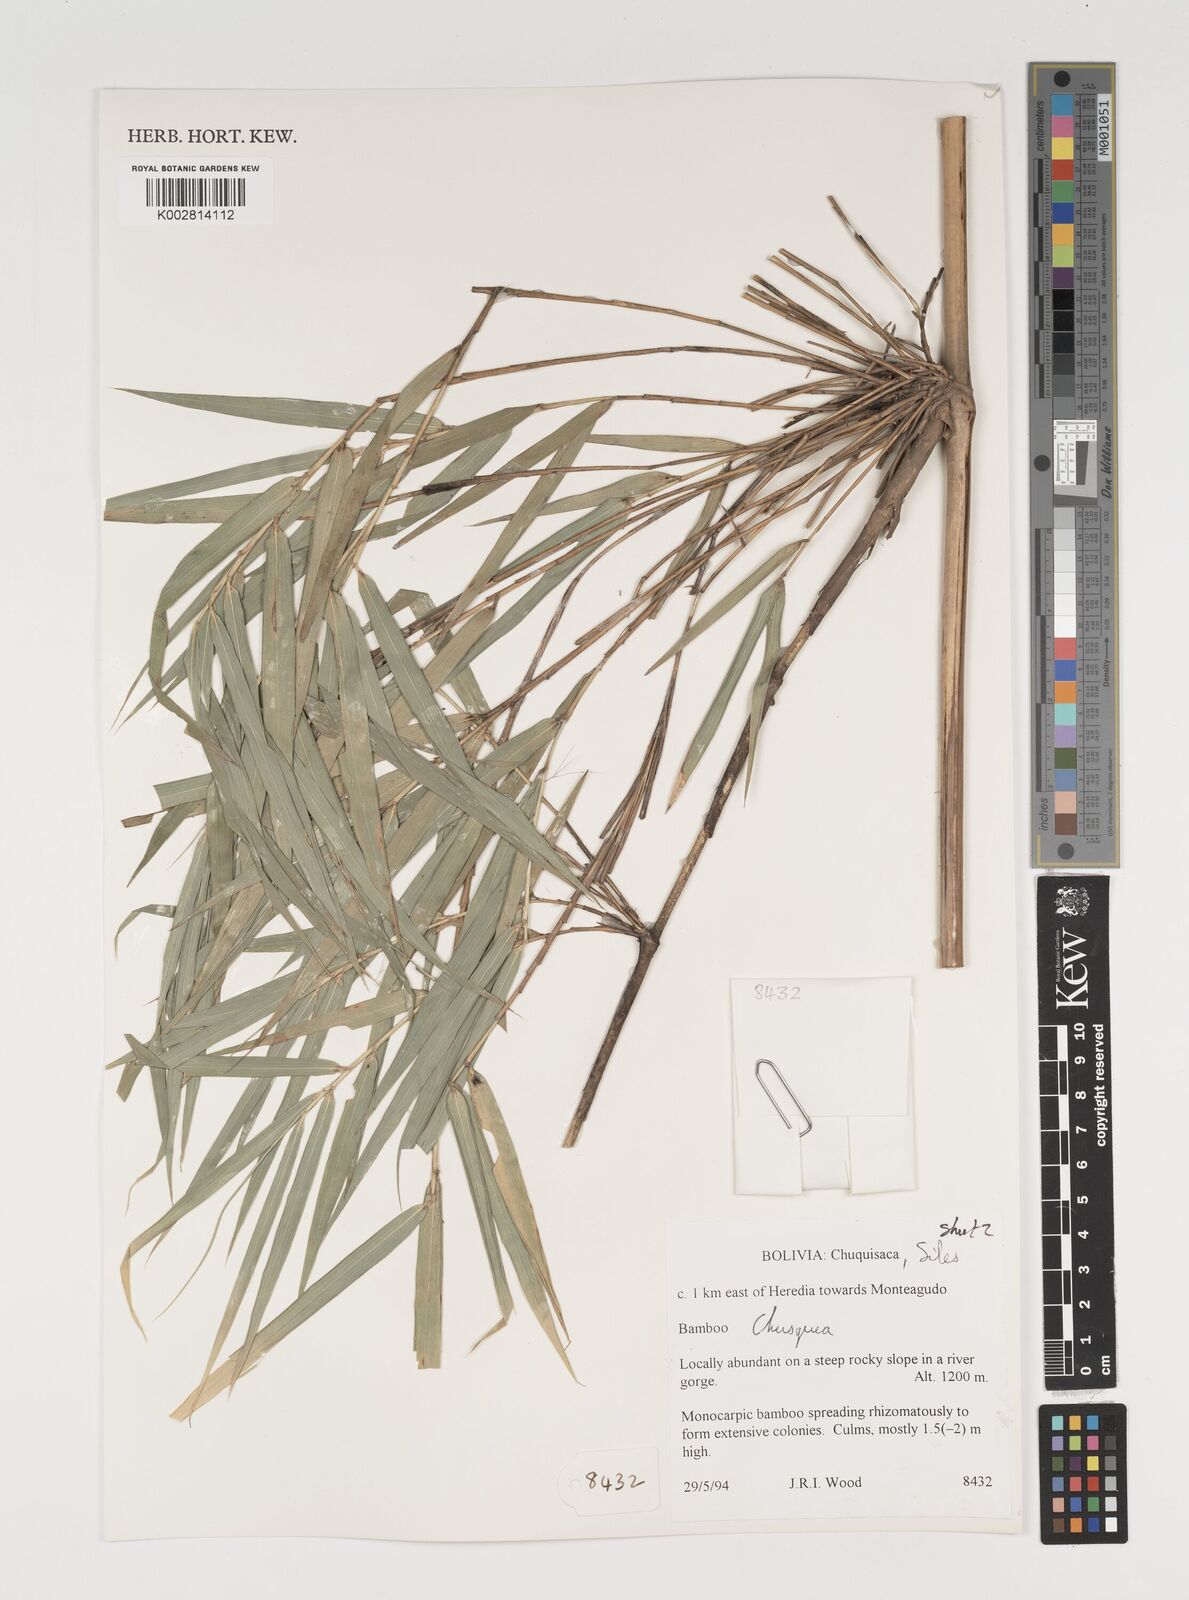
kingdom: Plantae
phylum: Tracheophyta
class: Liliopsida
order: Poales
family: Poaceae
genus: Chusquea
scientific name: Chusquea
